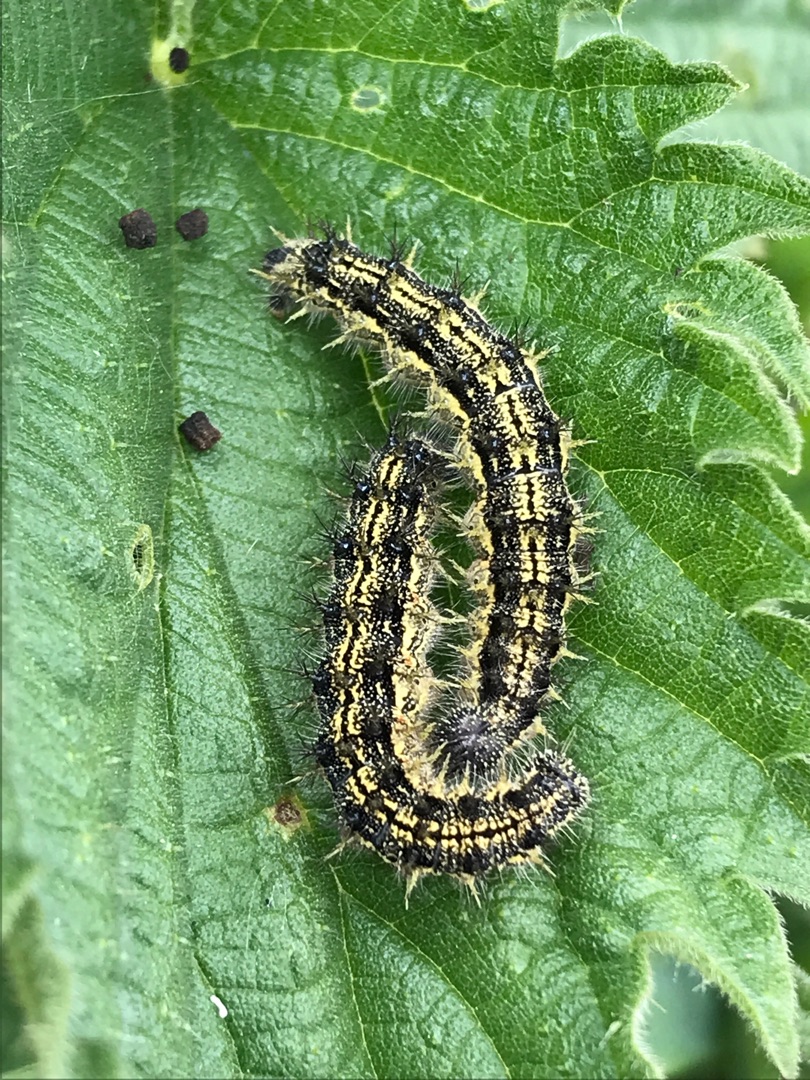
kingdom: Animalia
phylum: Arthropoda
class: Insecta
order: Lepidoptera
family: Nymphalidae
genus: Aglais
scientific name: Aglais urticae
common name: Nældens takvinge
